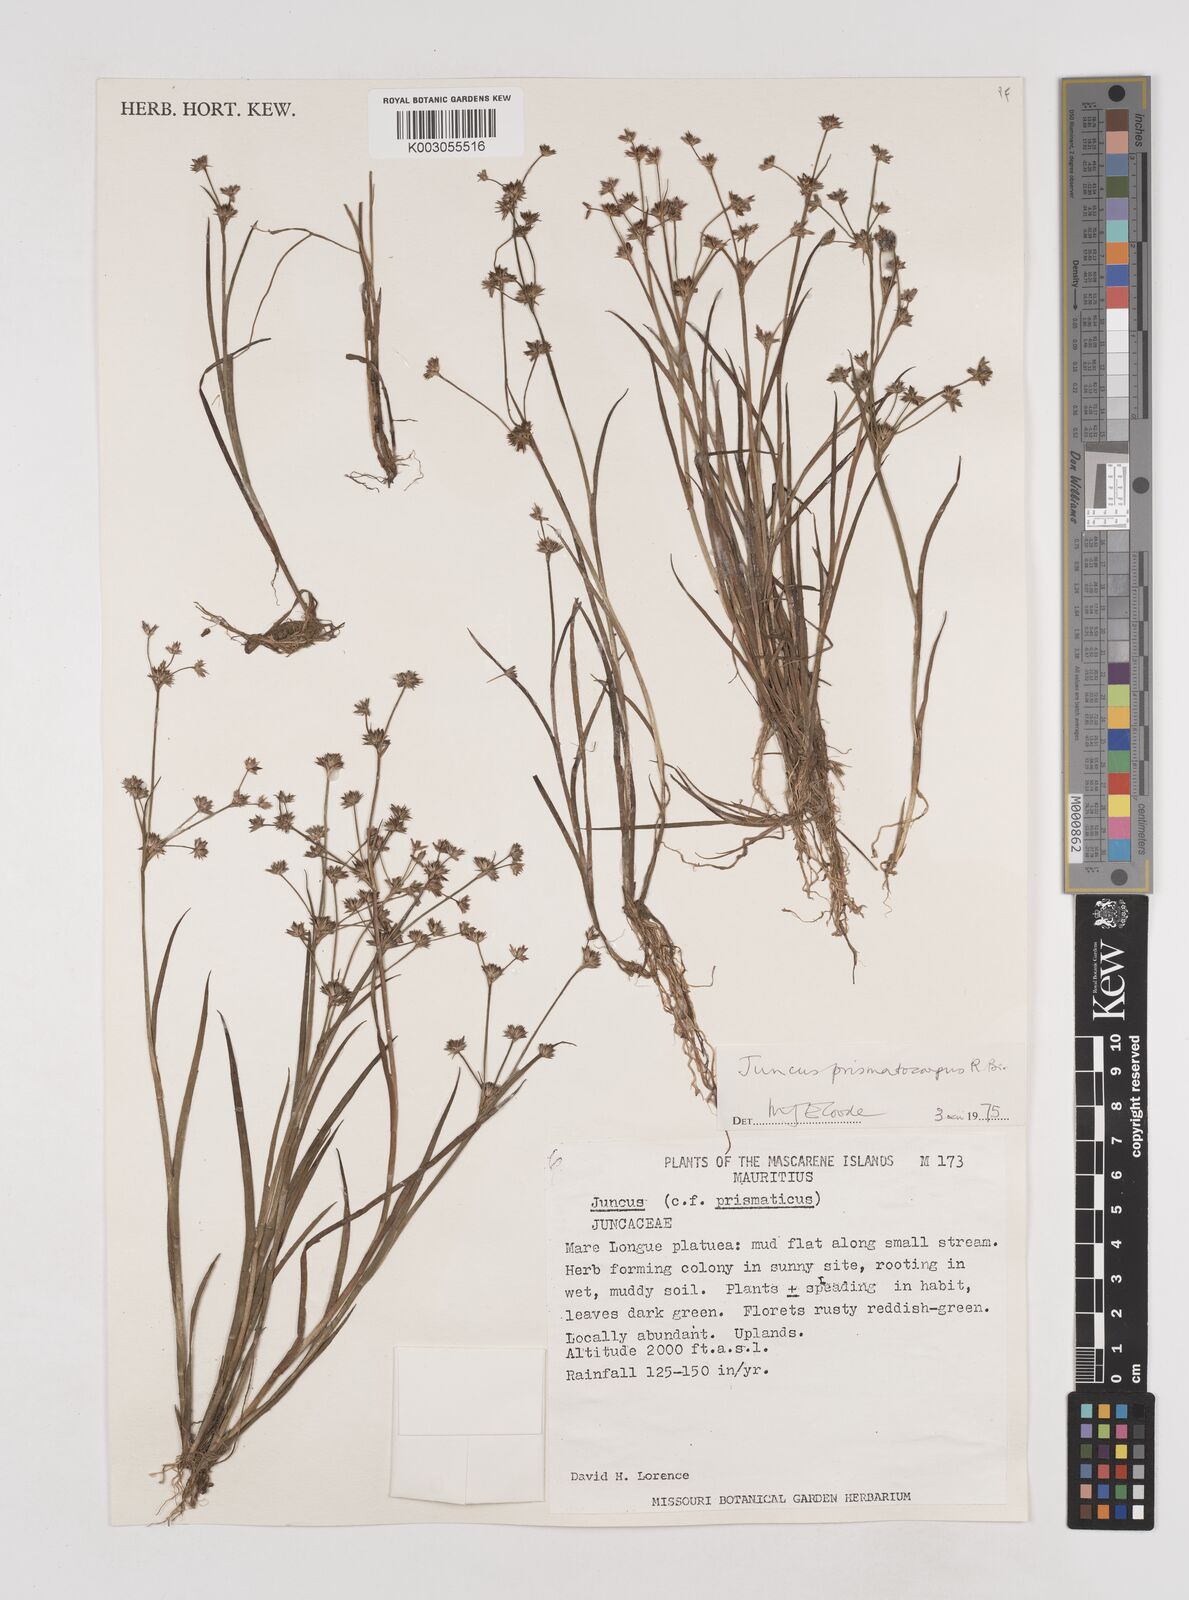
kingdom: Plantae
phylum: Tracheophyta
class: Liliopsida
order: Poales
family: Juncaceae
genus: Juncus
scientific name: Juncus prismatocarpus
